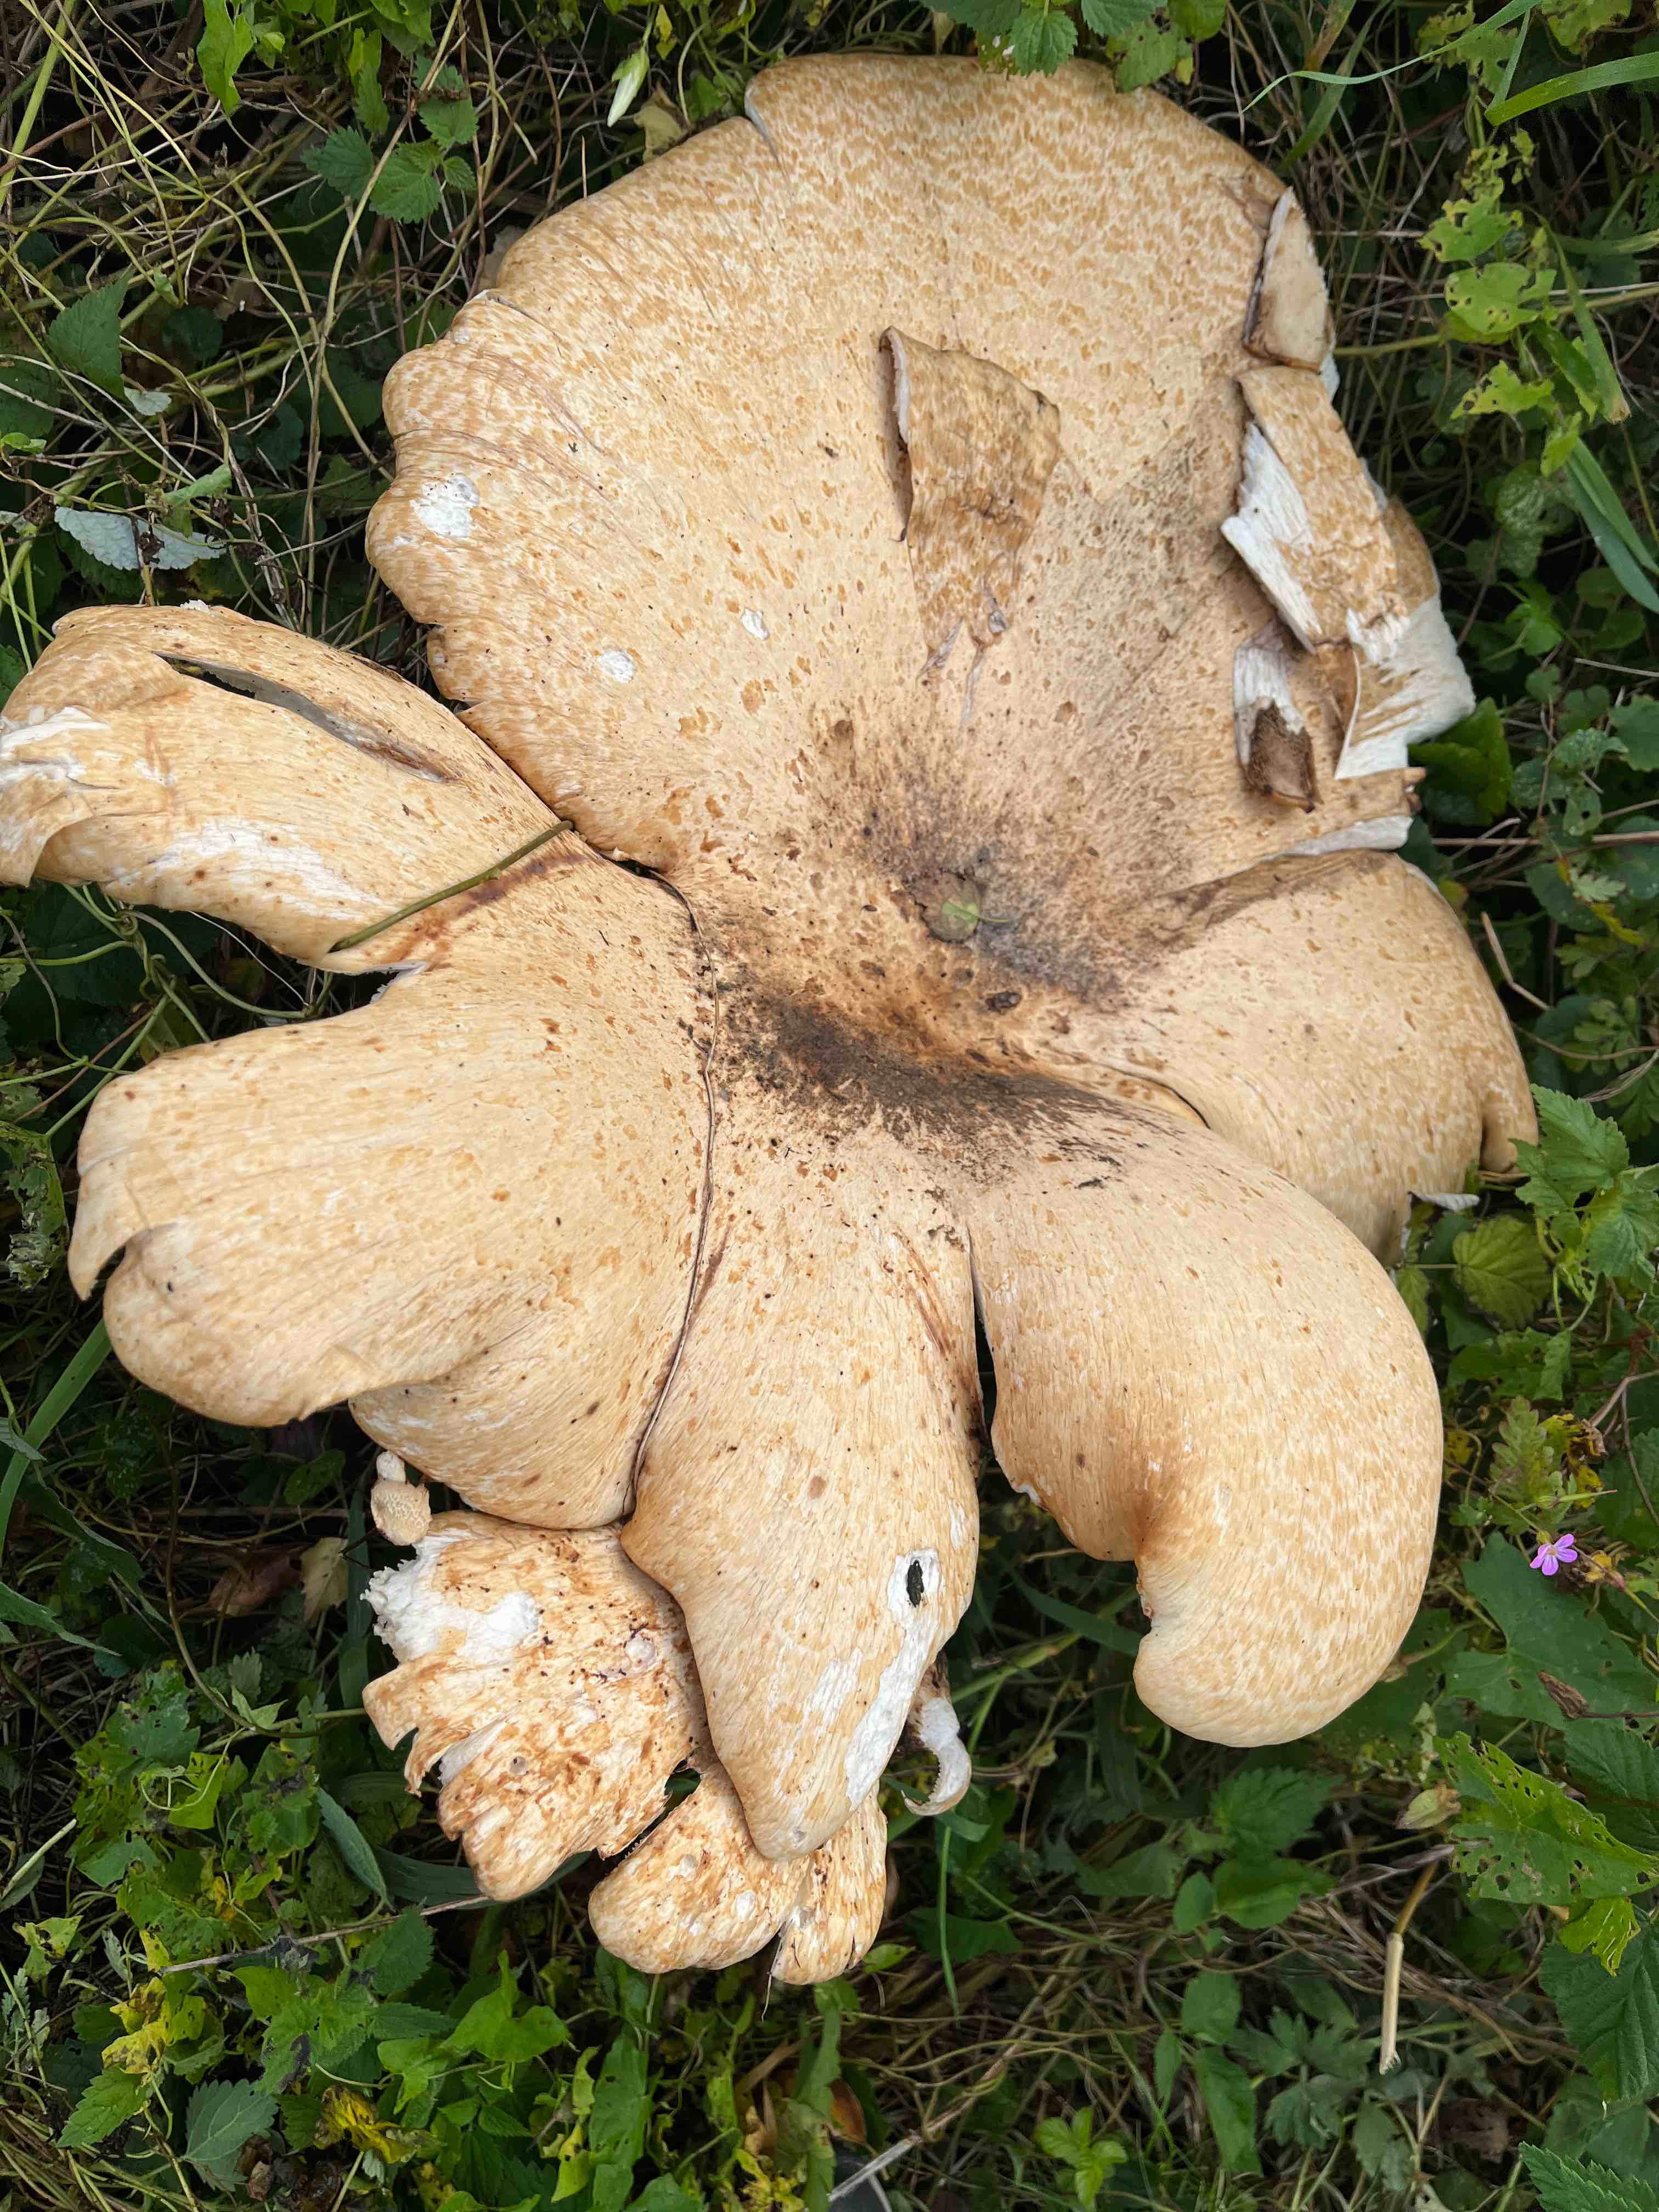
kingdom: Fungi
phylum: Basidiomycota
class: Agaricomycetes
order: Polyporales
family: Polyporaceae
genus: Cerioporus
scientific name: Cerioporus squamosus
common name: skællet stilkporesvamp
